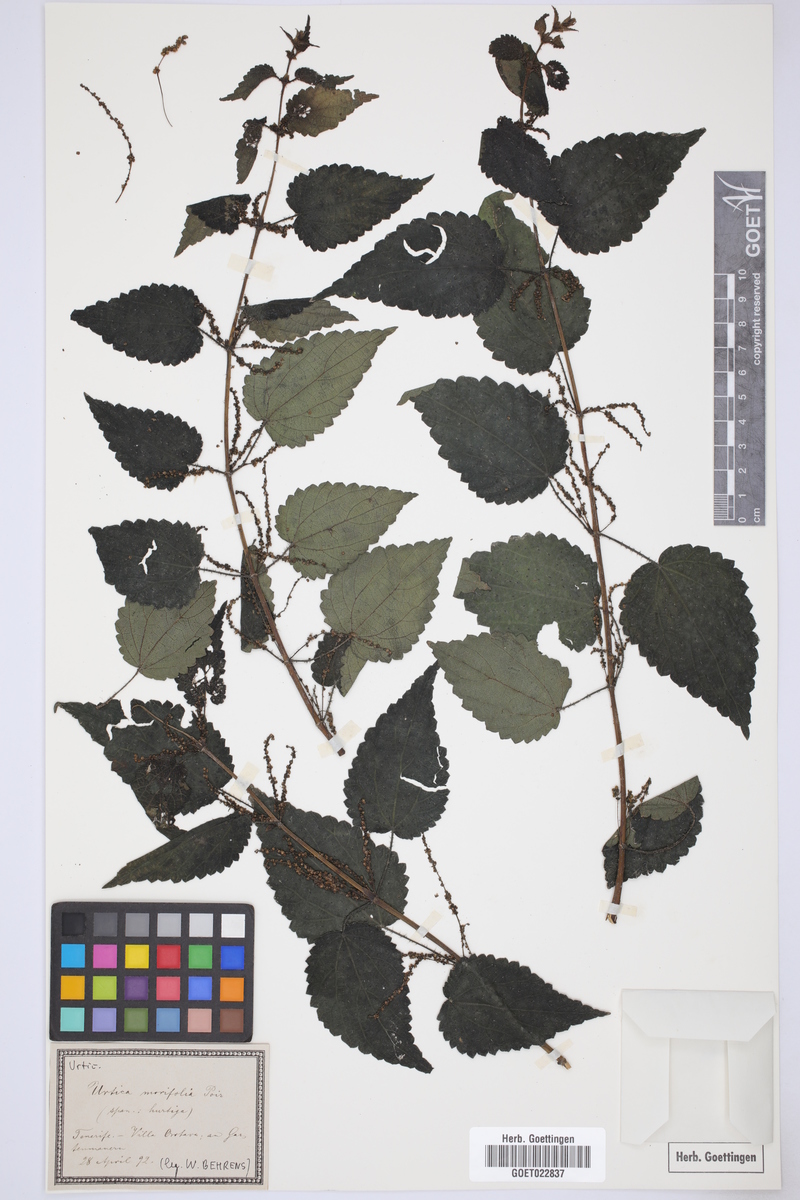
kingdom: Plantae
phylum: Tracheophyta
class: Magnoliopsida
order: Rosales
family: Urticaceae
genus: Urtica
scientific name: Urtica morifolia
